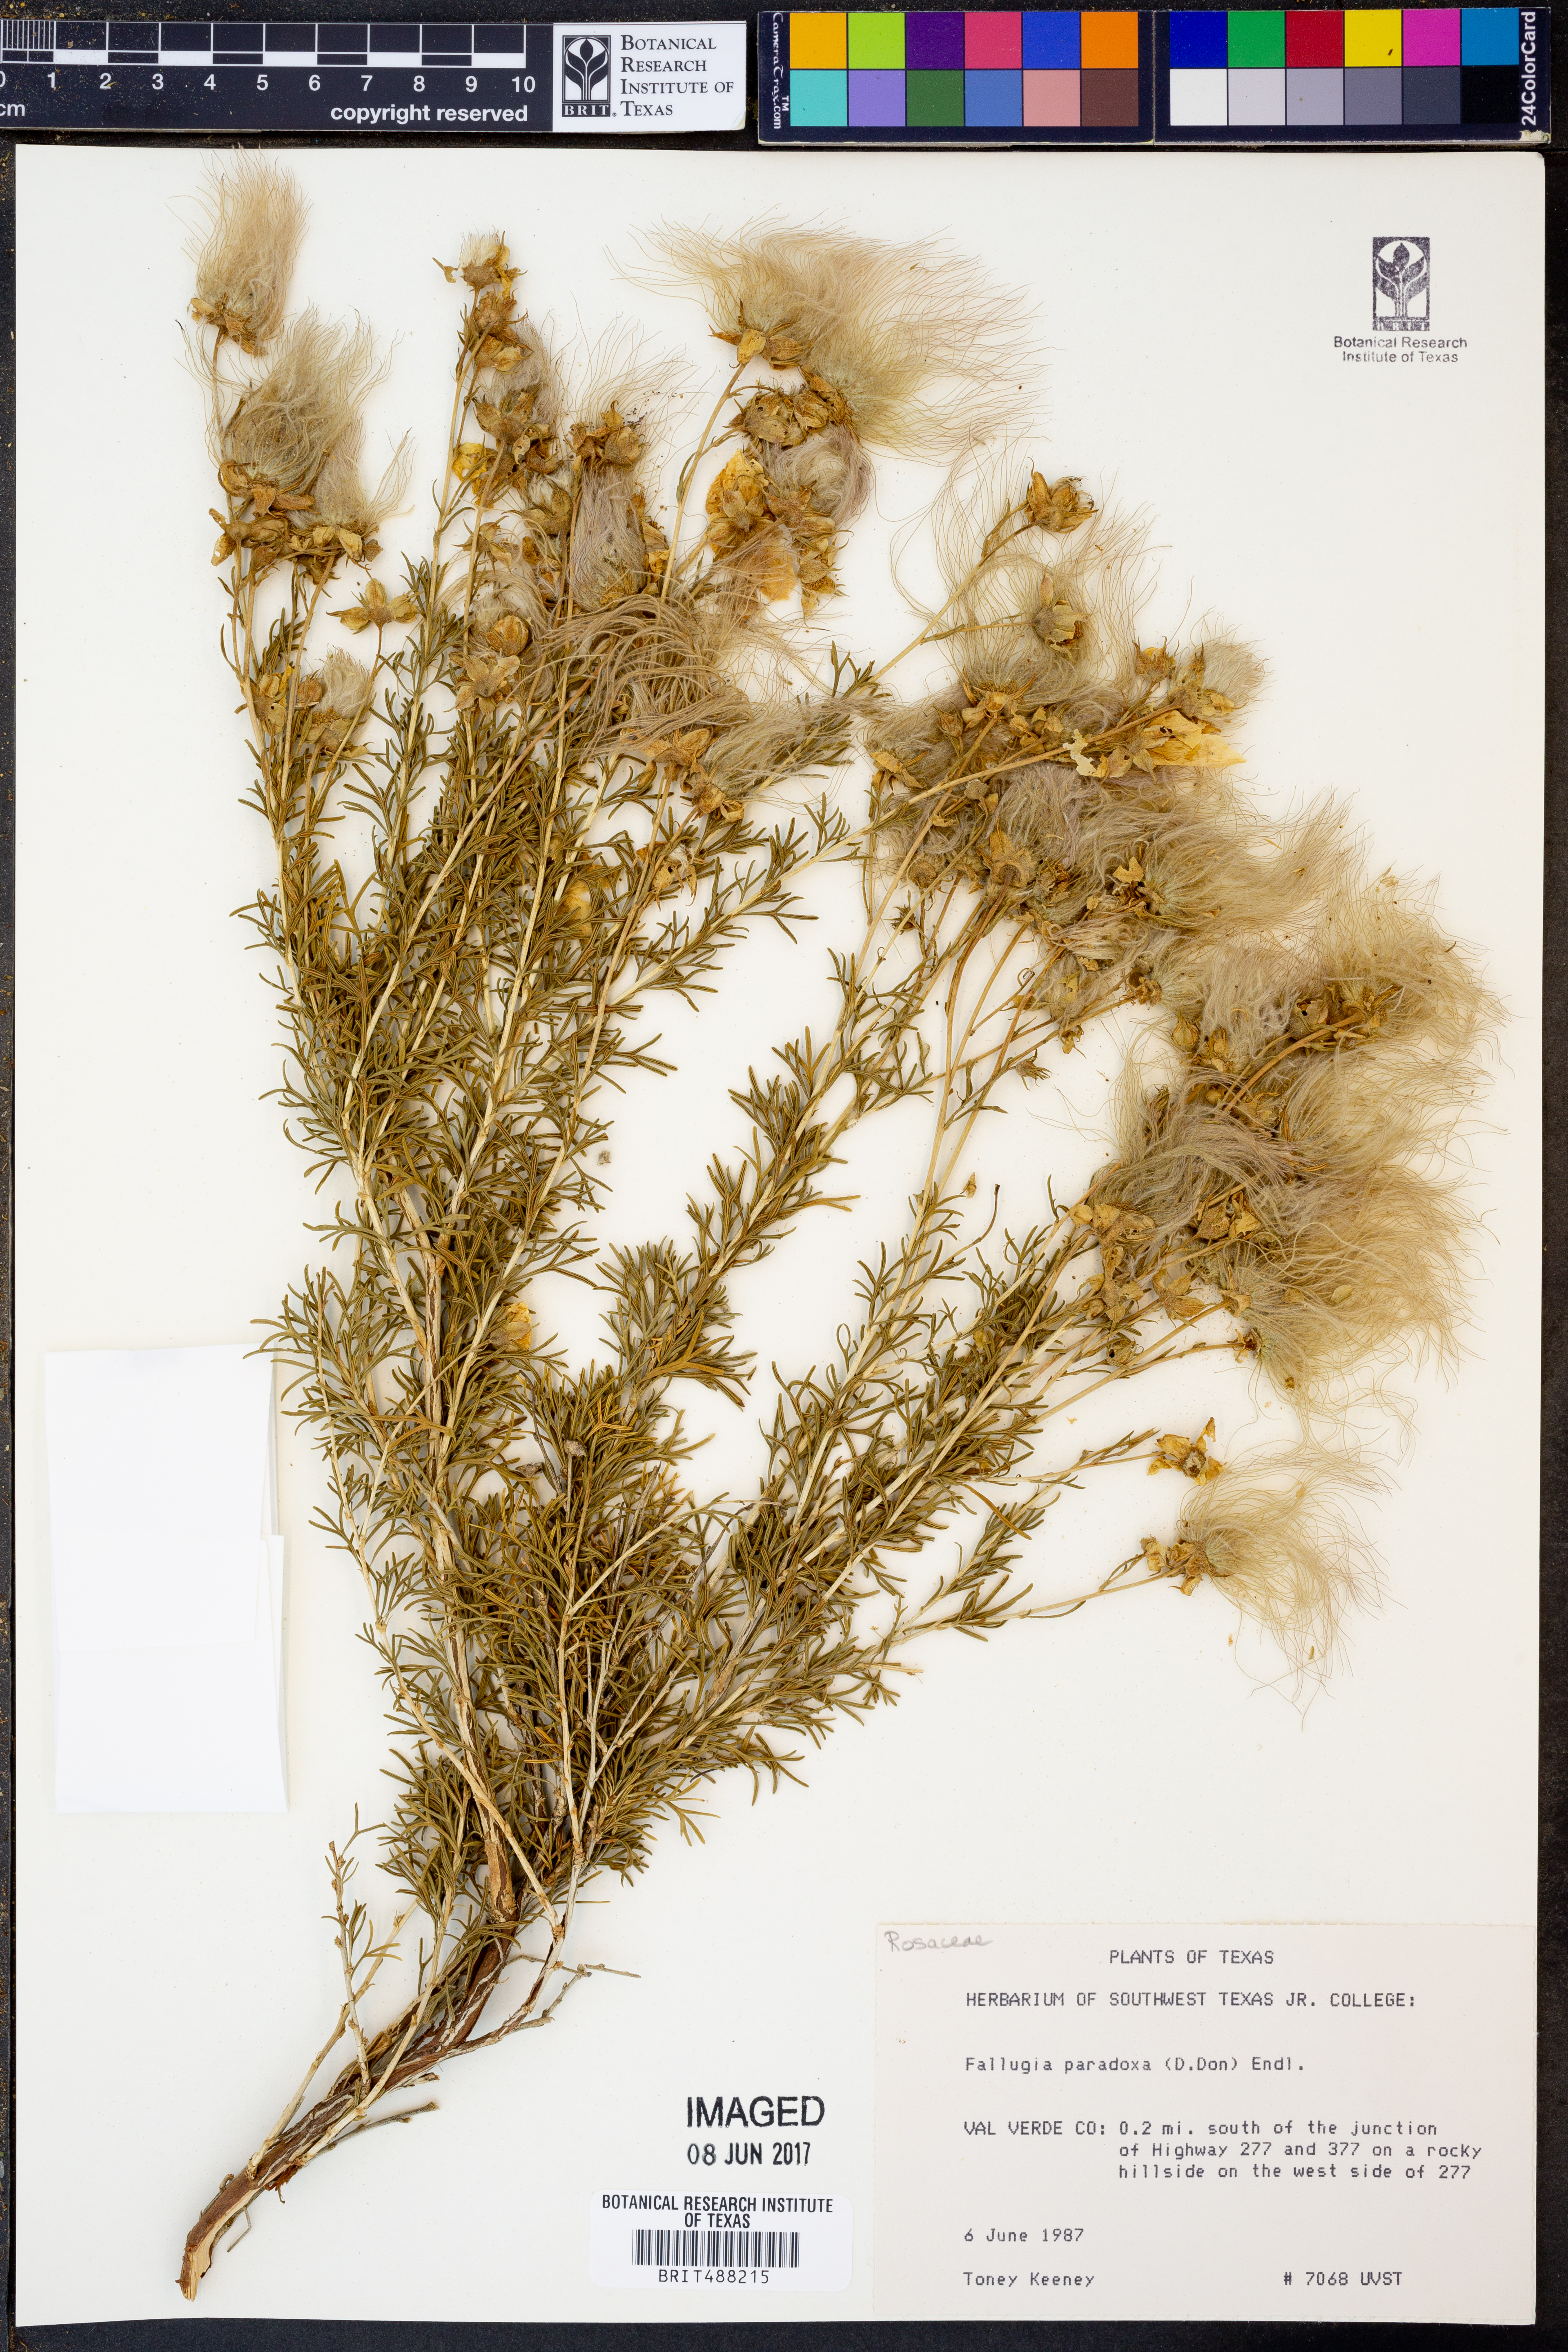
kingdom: Plantae
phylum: Tracheophyta
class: Magnoliopsida
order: Rosales
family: Rosaceae
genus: Fallugia
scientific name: Fallugia paradoxa
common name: Apache-plume
